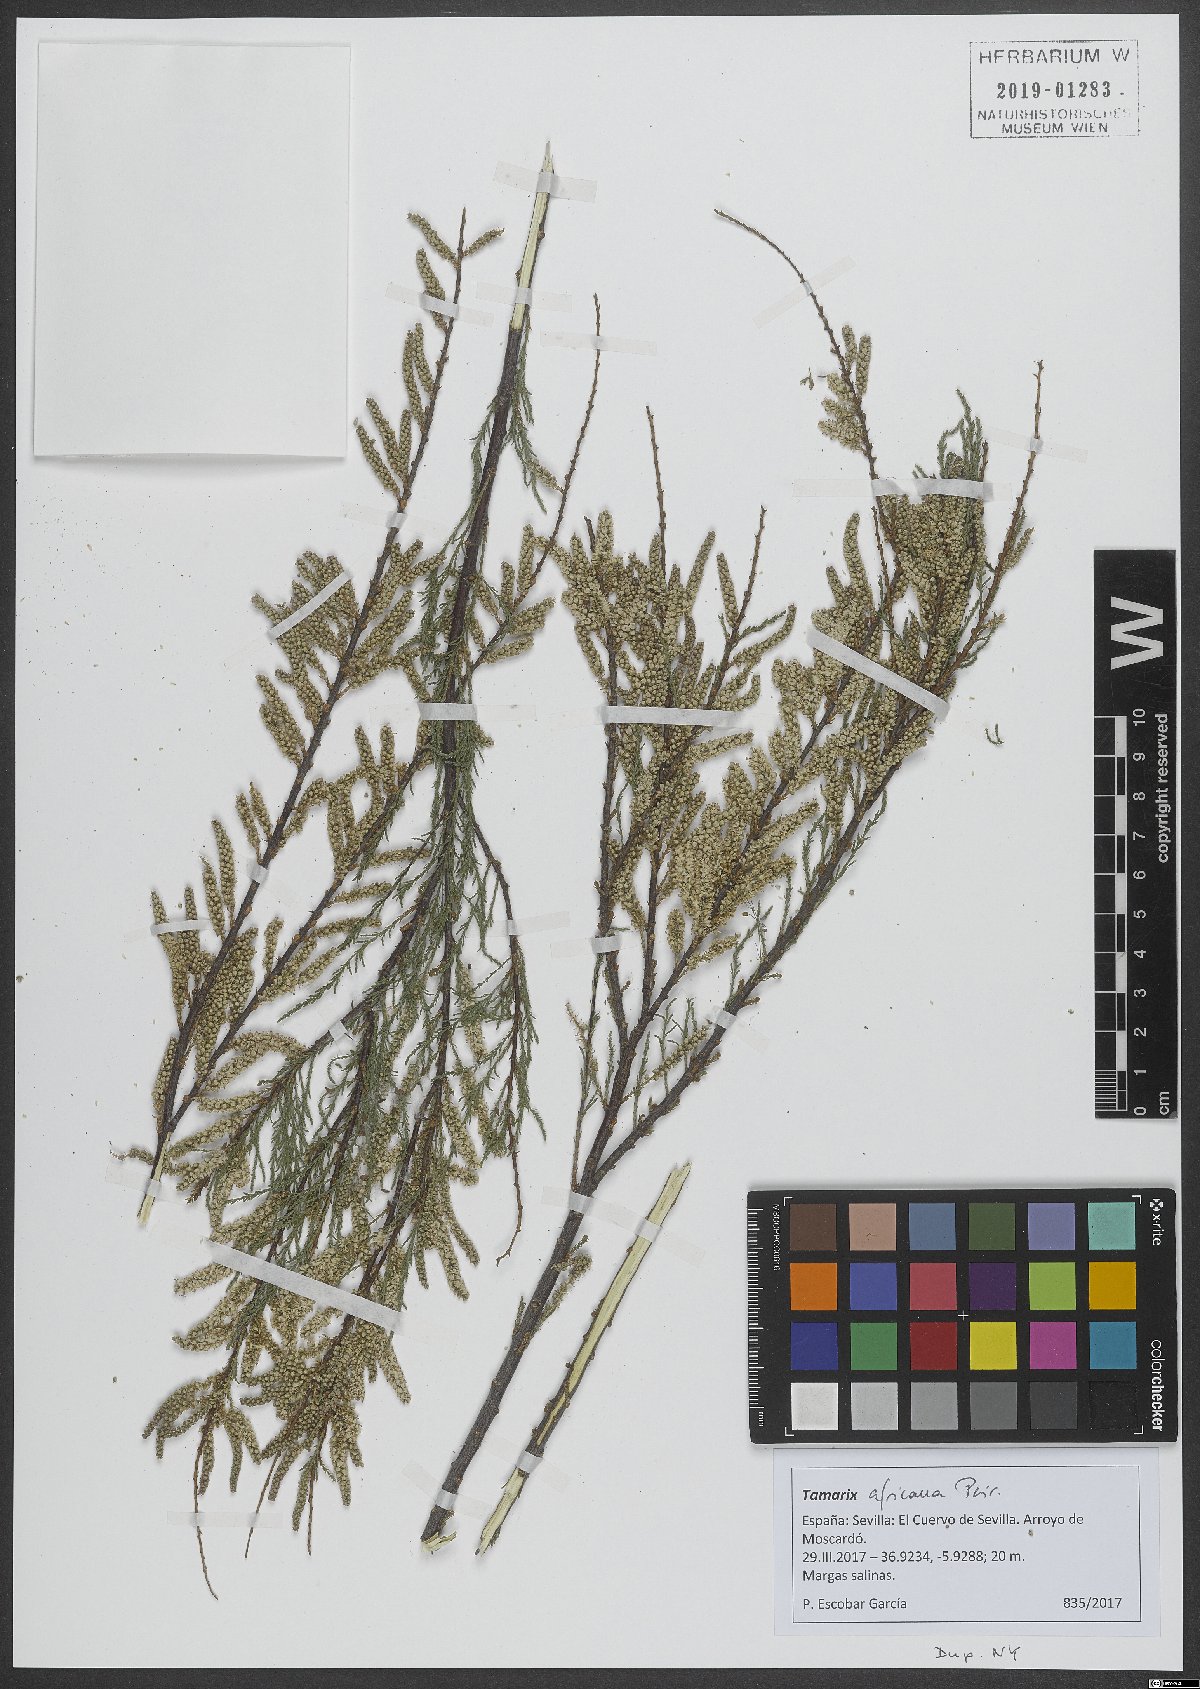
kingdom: Plantae
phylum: Tracheophyta
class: Magnoliopsida
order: Caryophyllales
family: Tamaricaceae
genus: Tamarix
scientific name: Tamarix africana
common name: African tamarisk
